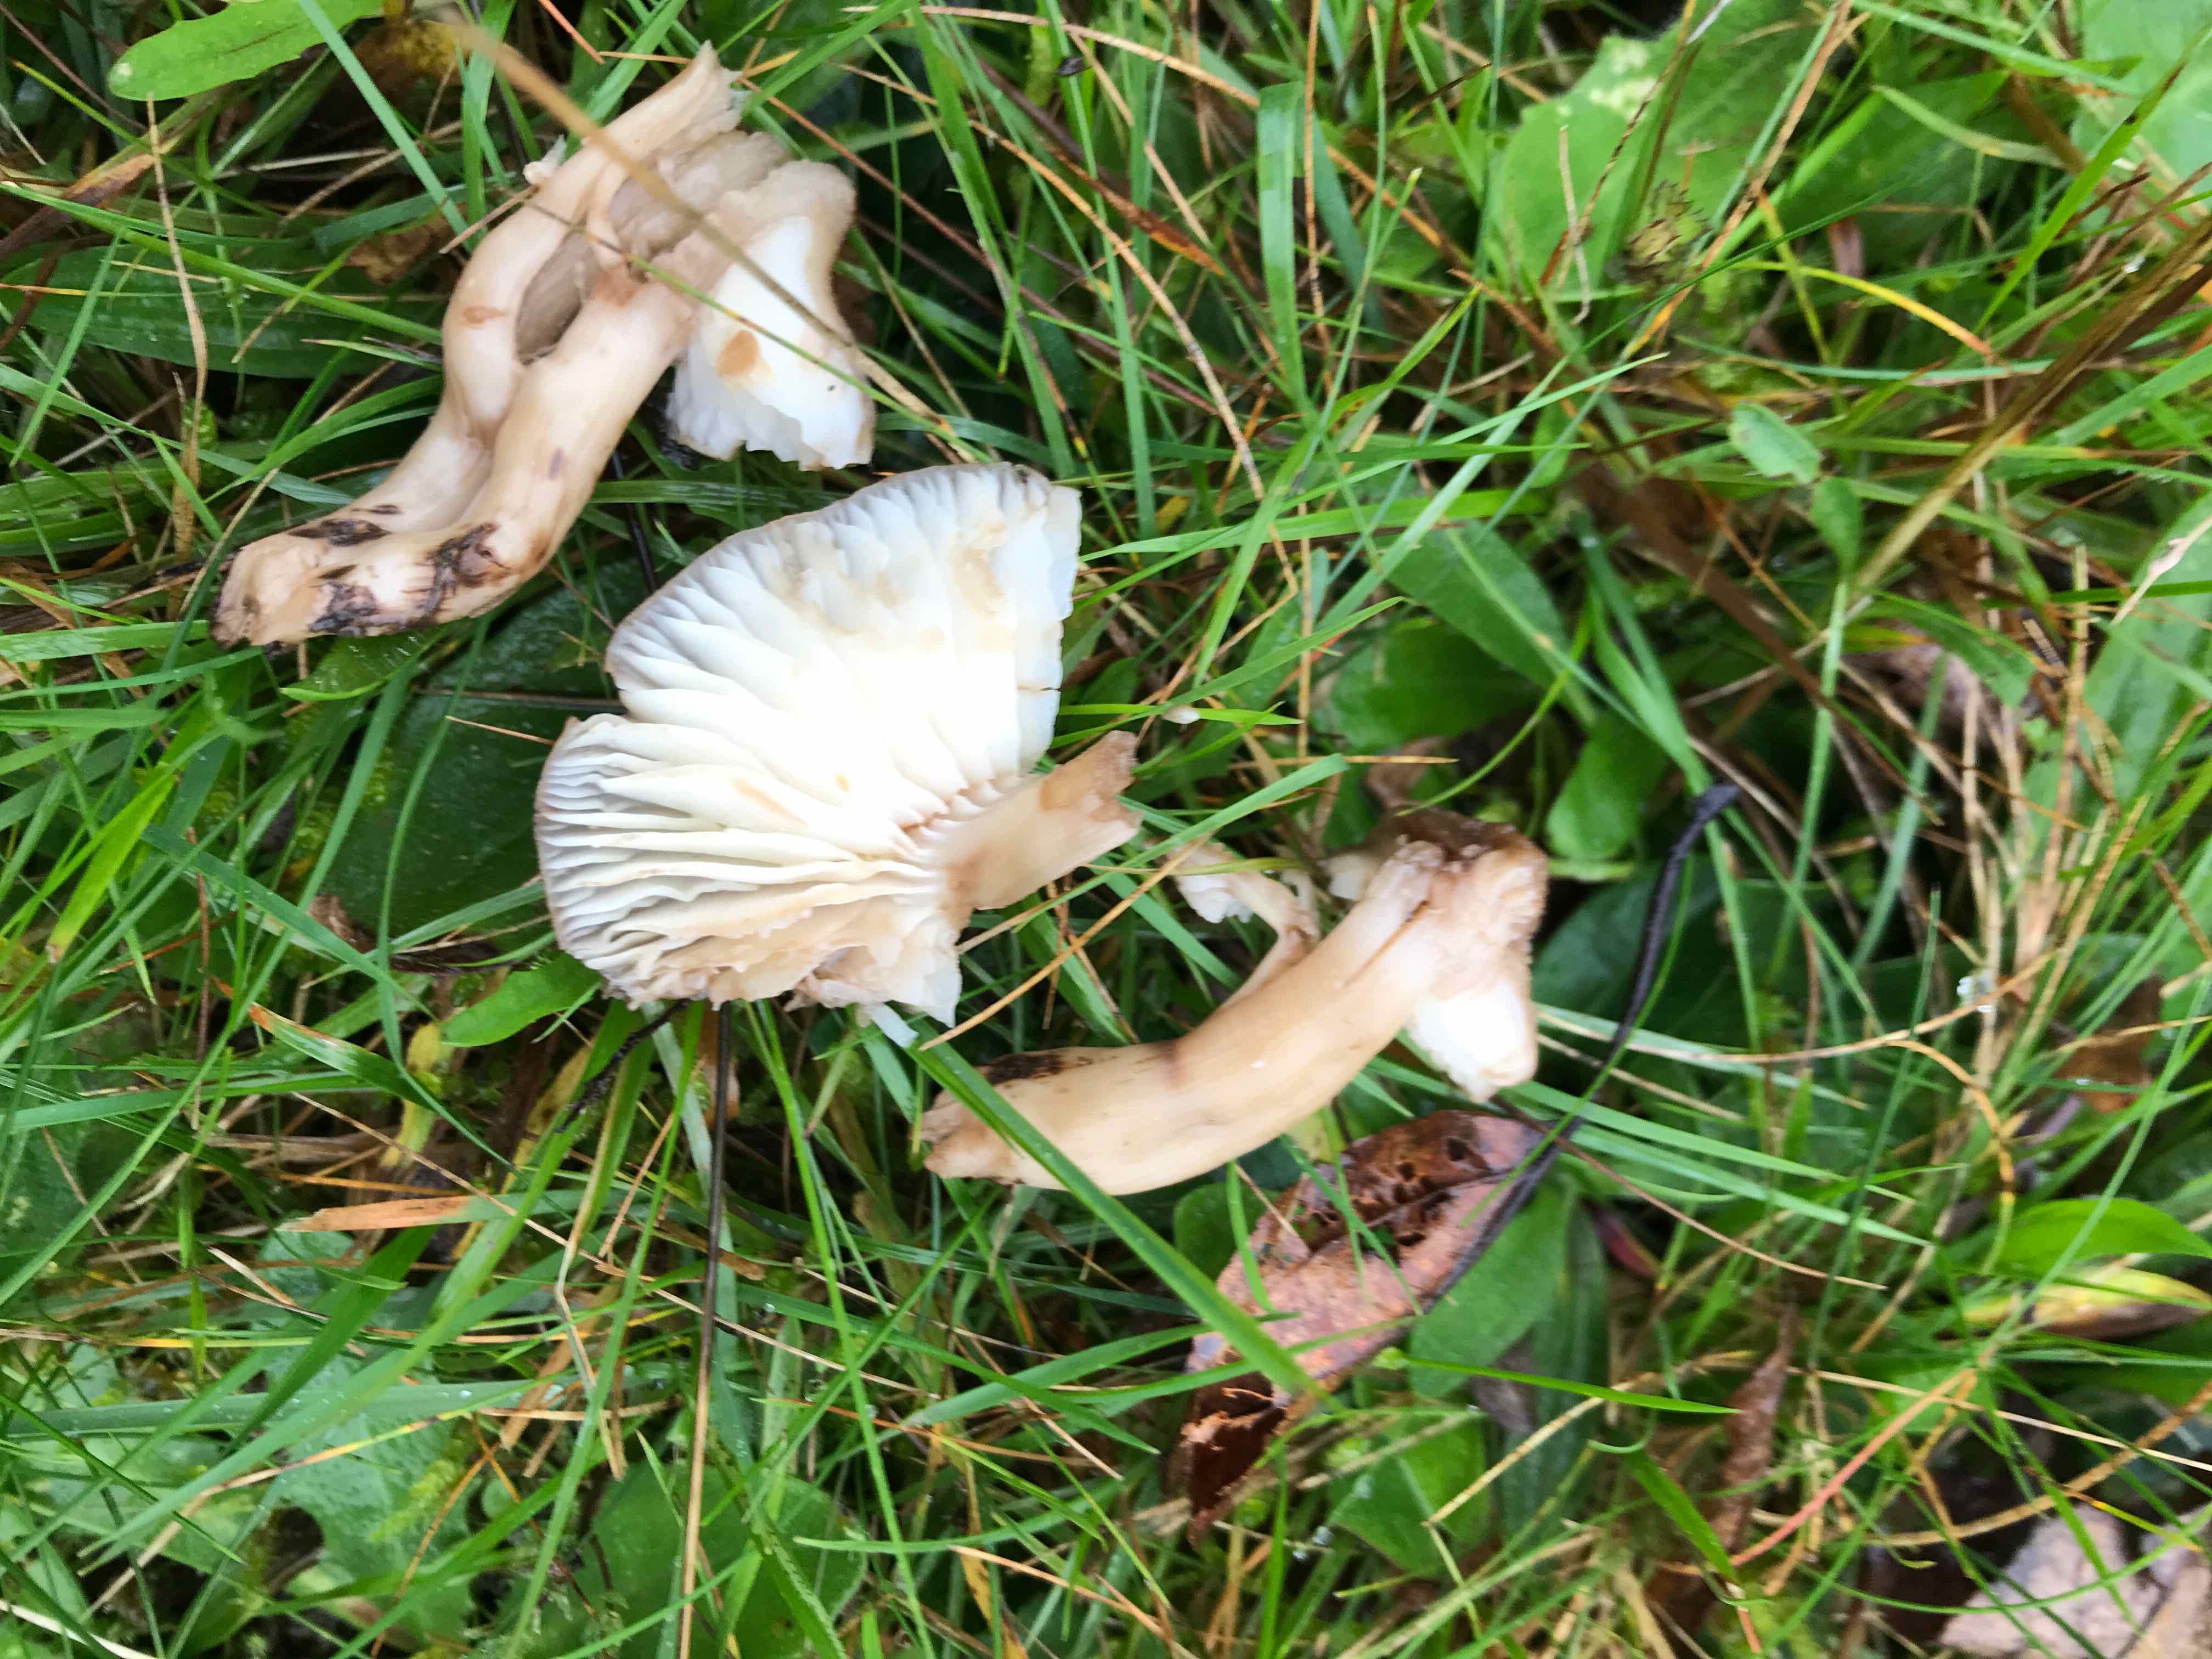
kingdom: Fungi
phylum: Basidiomycota
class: Agaricomycetes
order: Agaricales
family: Hygrophoraceae
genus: Hygrocybe
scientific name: Hygrocybe ingrata
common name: Jensens vokshat
